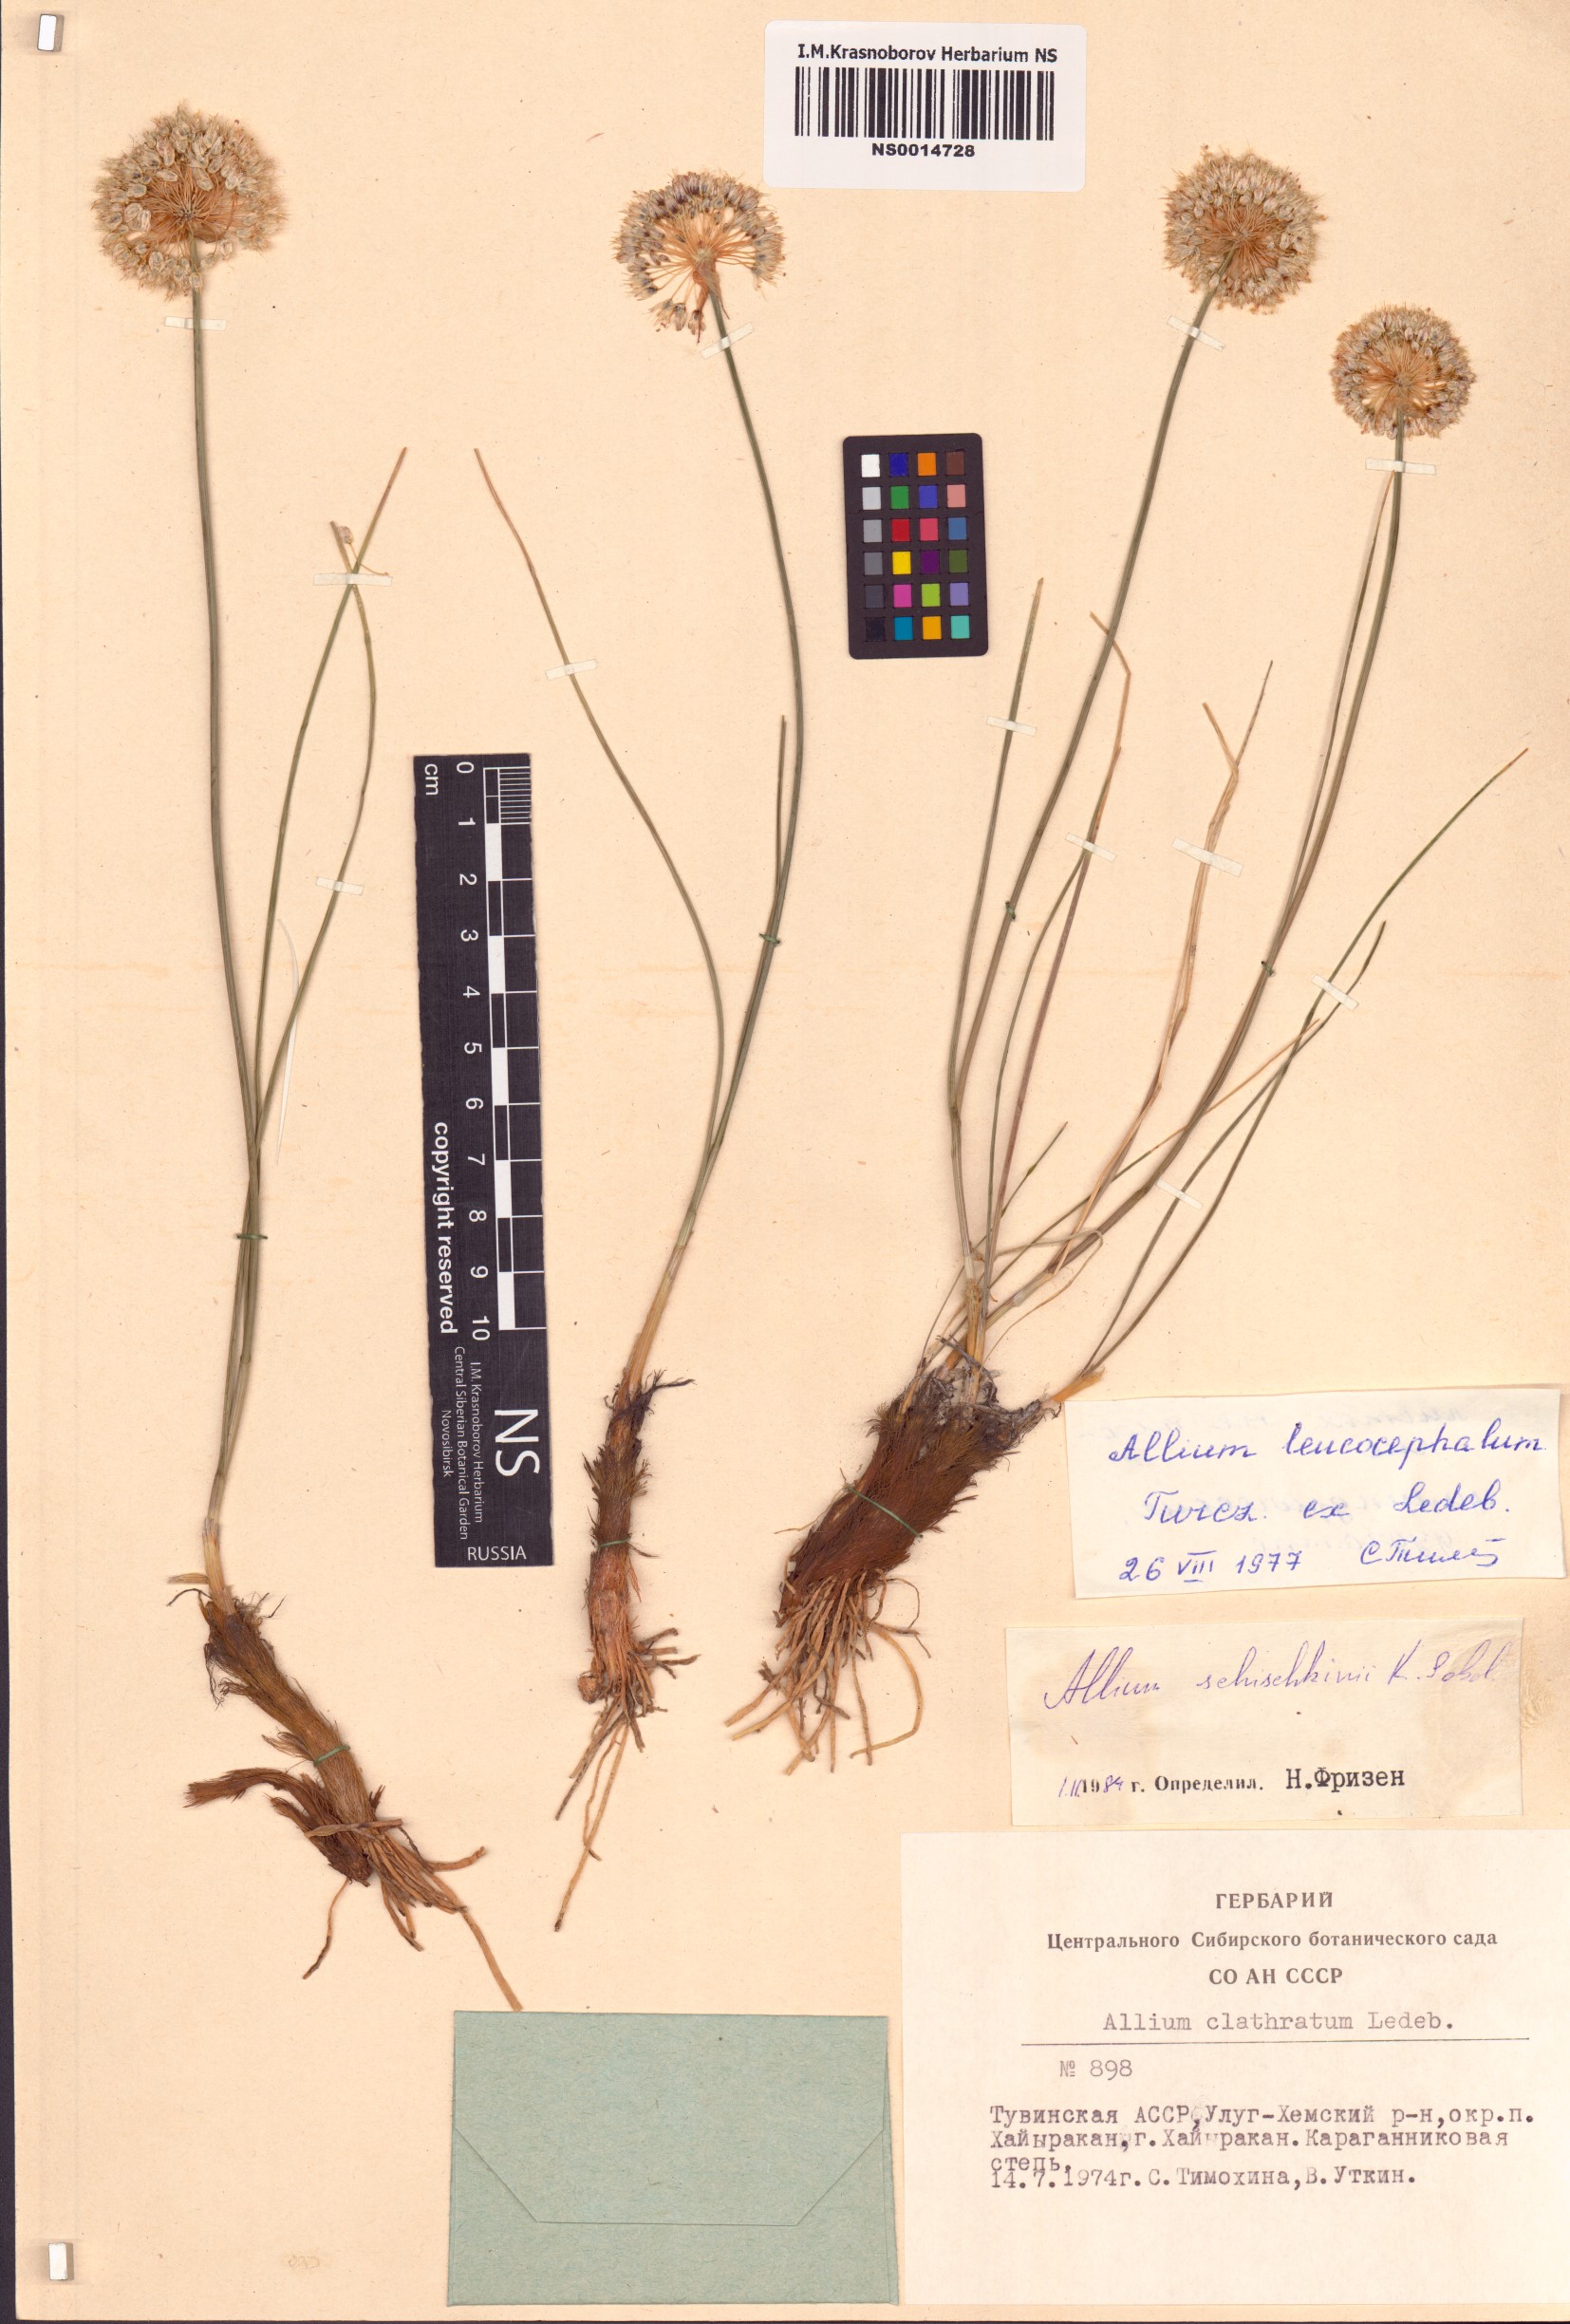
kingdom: Plantae
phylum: Tracheophyta
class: Liliopsida
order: Asparagales
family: Amaryllidaceae
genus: Allium
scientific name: Allium schischkinii
